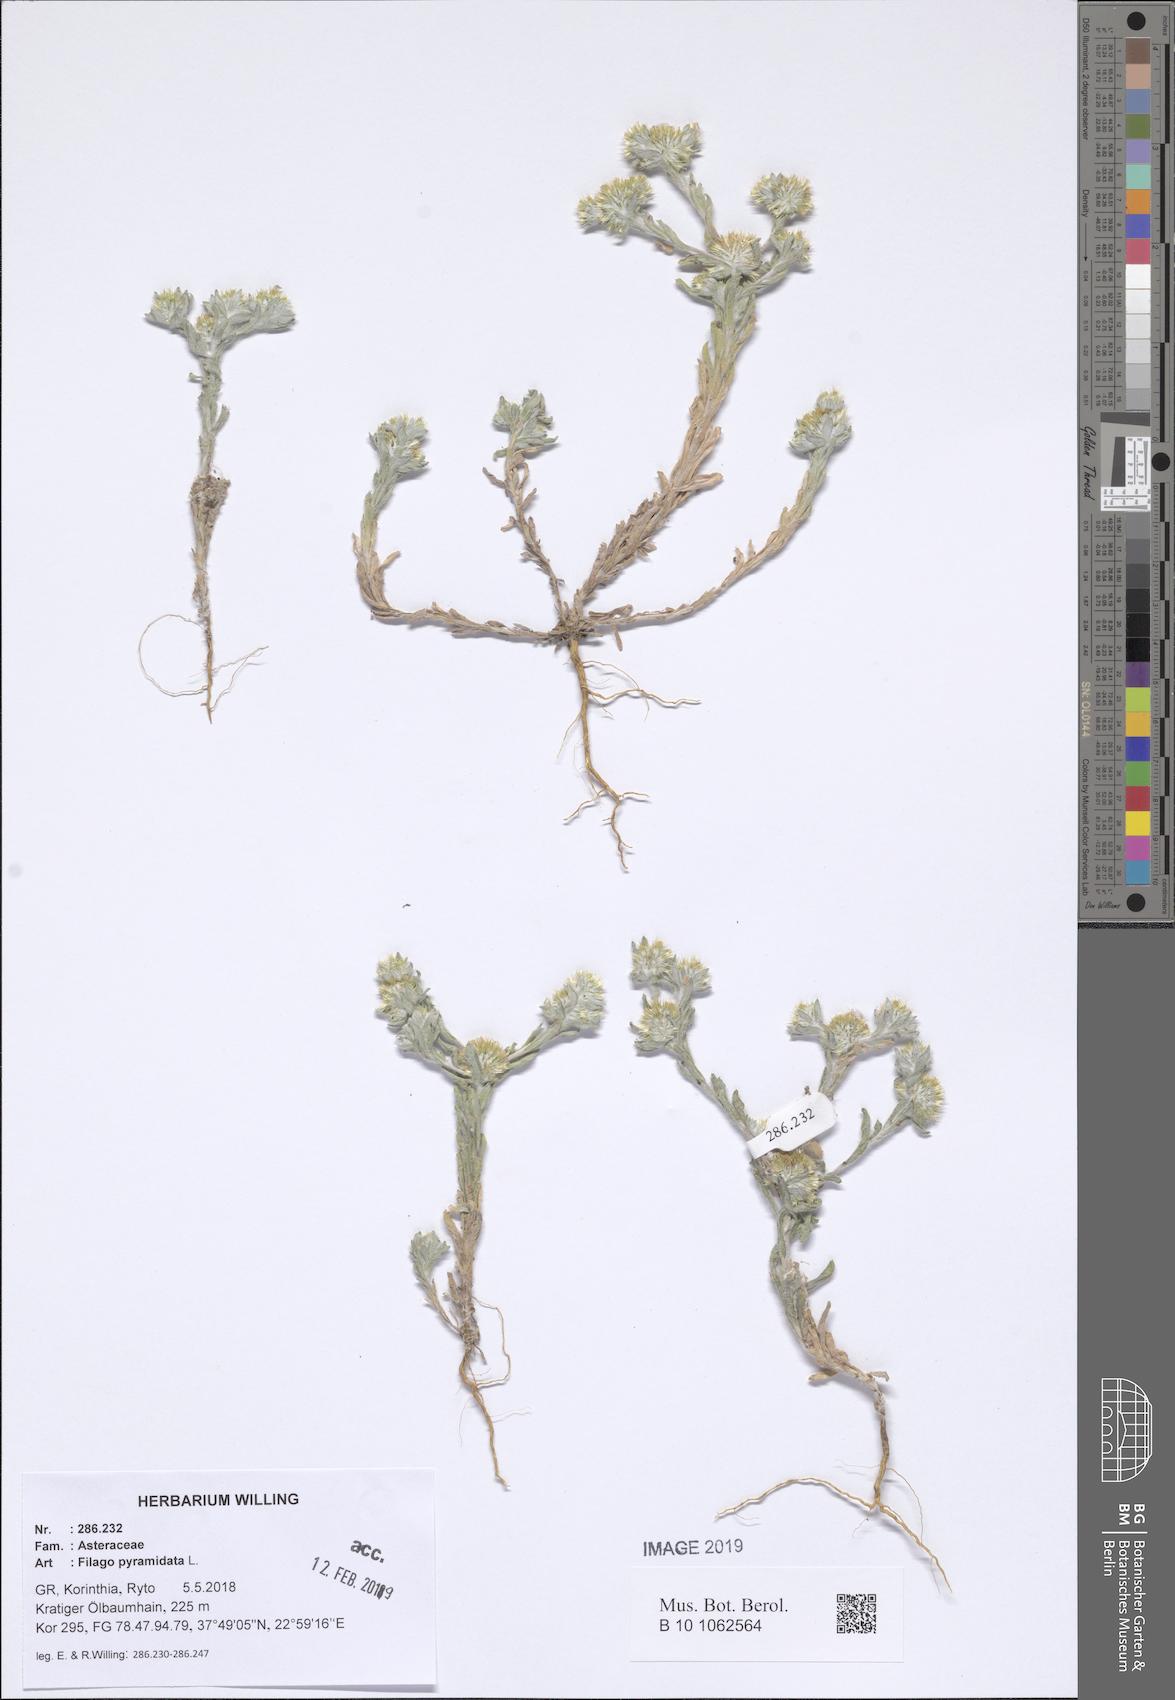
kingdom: Plantae
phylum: Tracheophyta
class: Magnoliopsida
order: Asterales
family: Asteraceae
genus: Filago
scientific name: Filago pyramidata
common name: Broad-leaved cudweed
